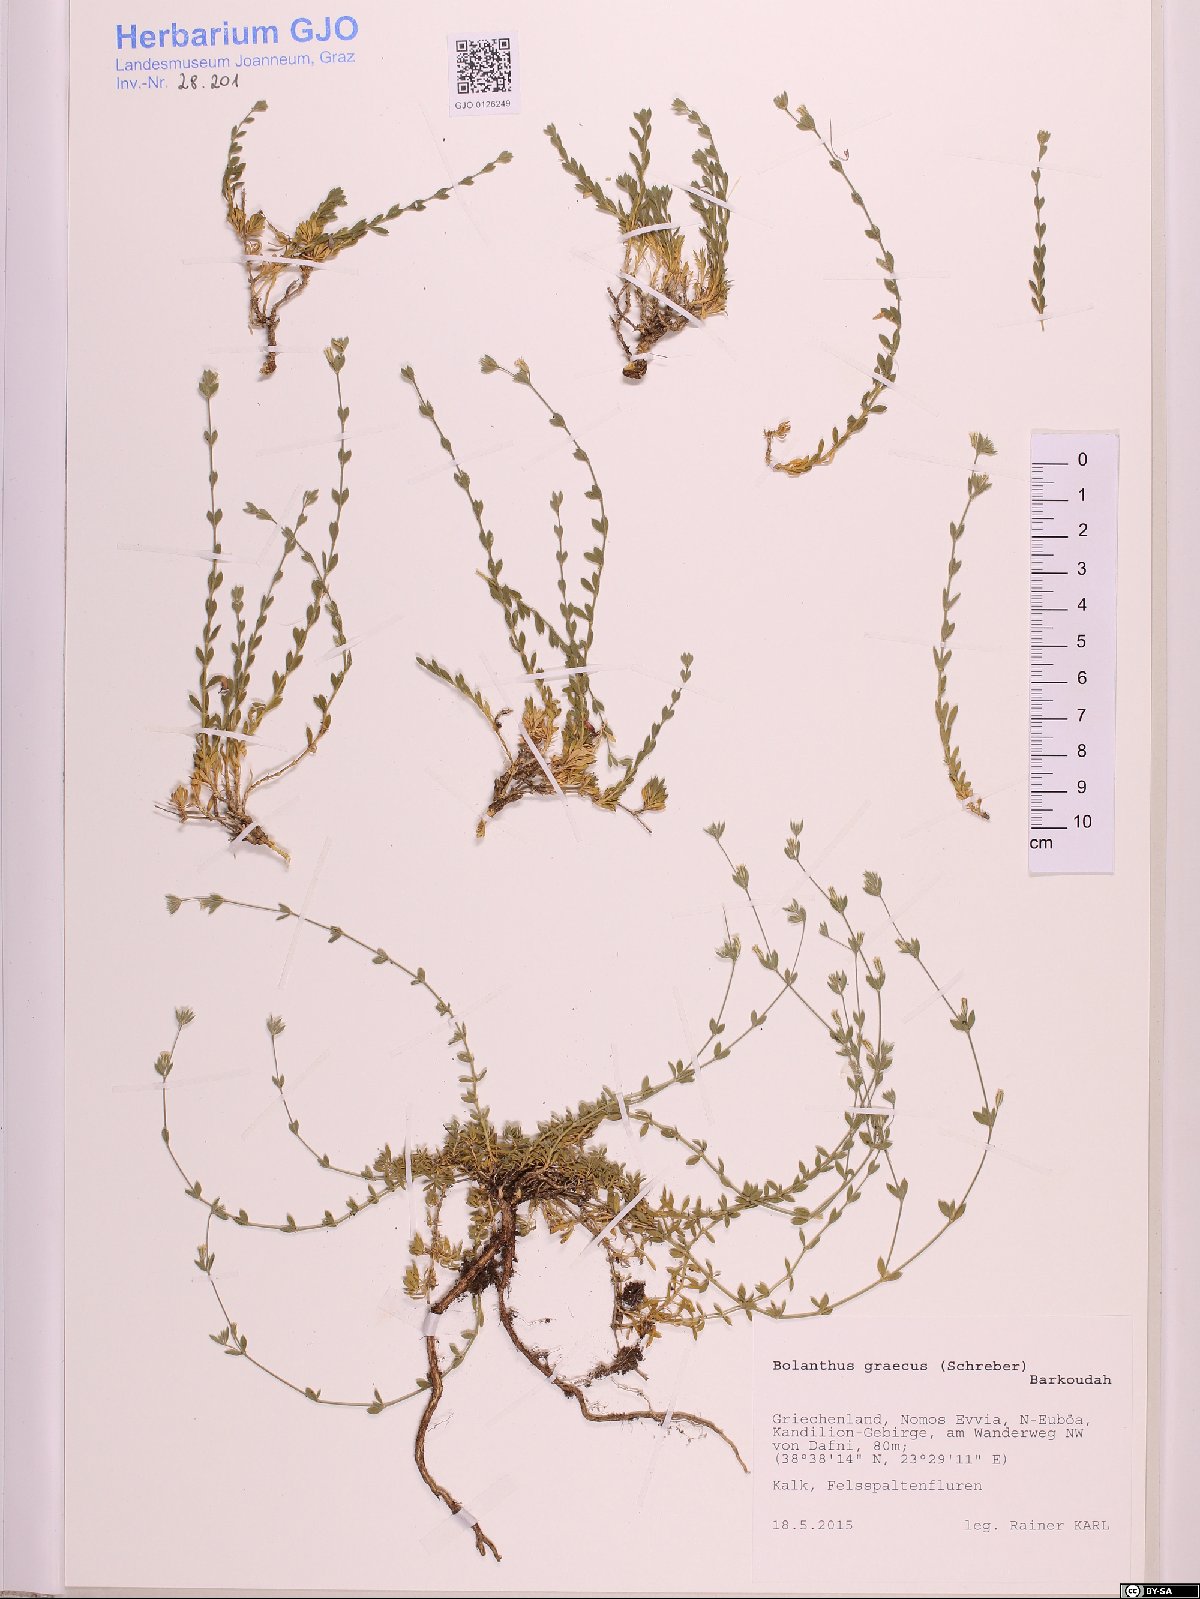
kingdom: Plantae
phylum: Tracheophyta
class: Magnoliopsida
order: Caryophyllales
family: Caryophyllaceae
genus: Graecobolanthus
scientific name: Graecobolanthus graecus
